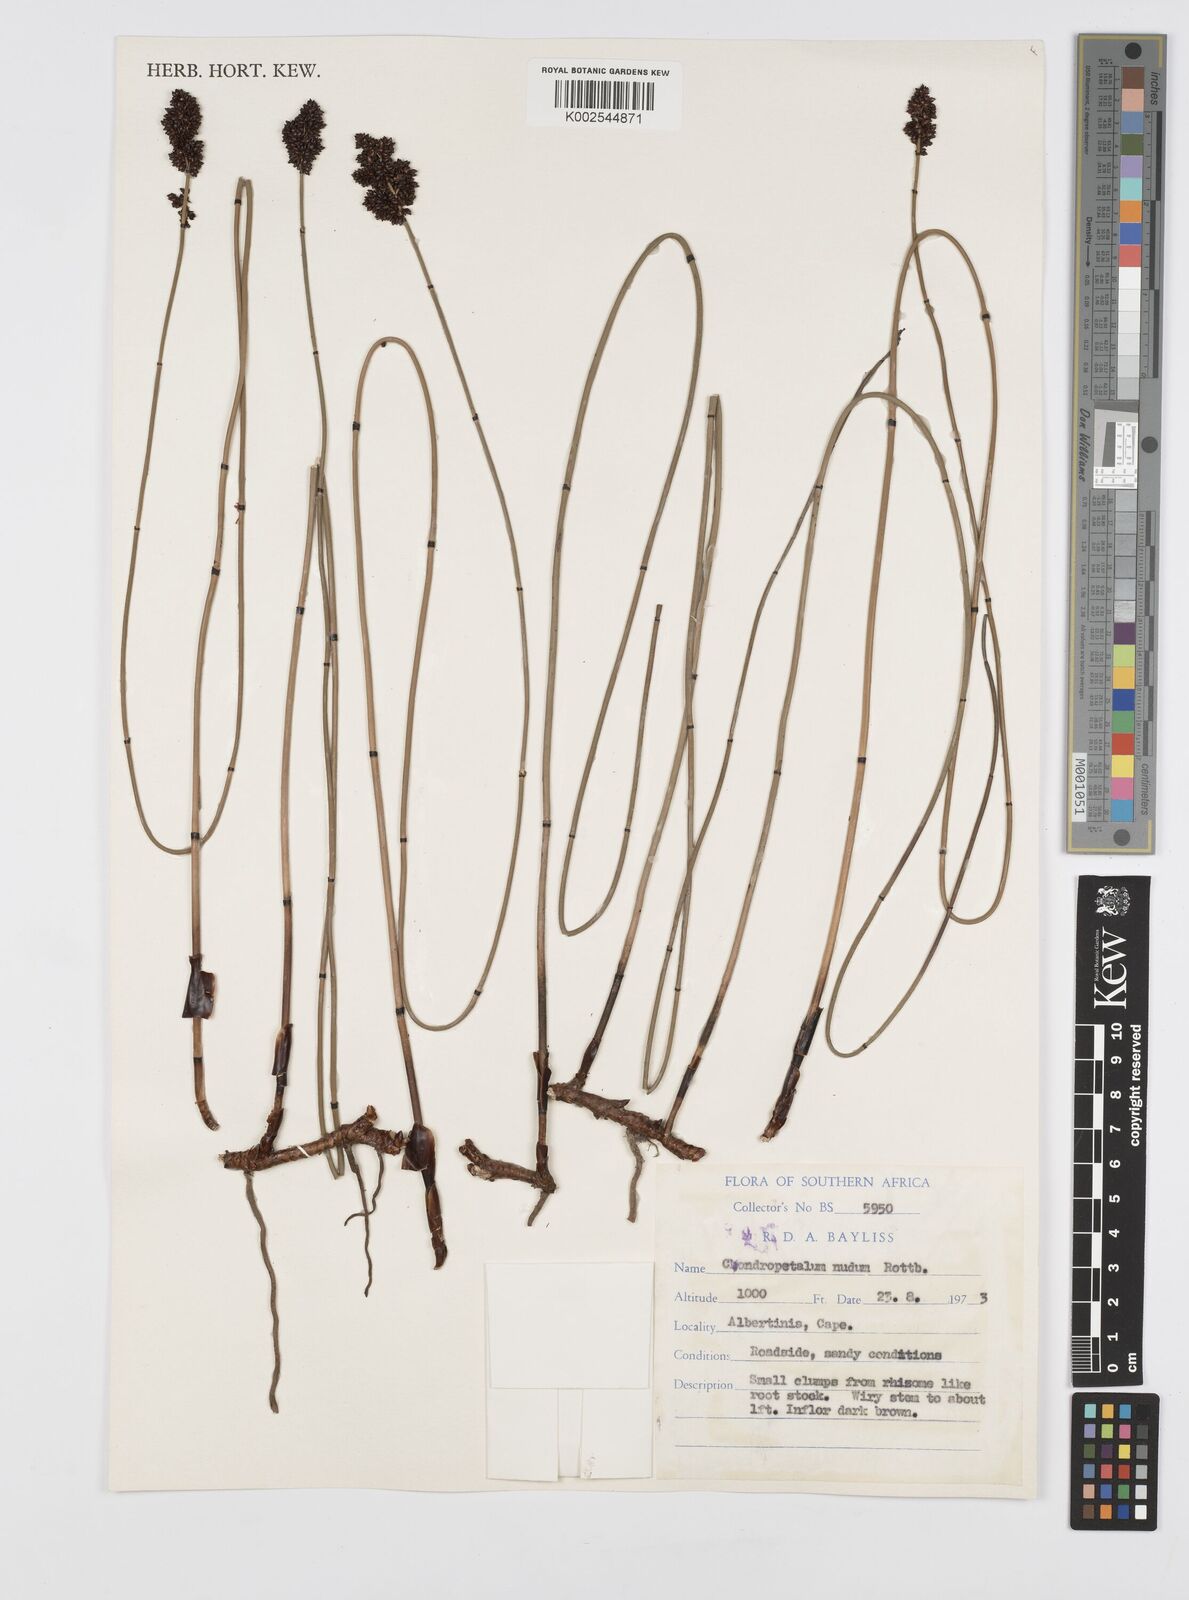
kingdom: Plantae
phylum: Tracheophyta
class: Liliopsida
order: Poales
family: Restionaceae
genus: Elegia
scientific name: Elegia nuda
